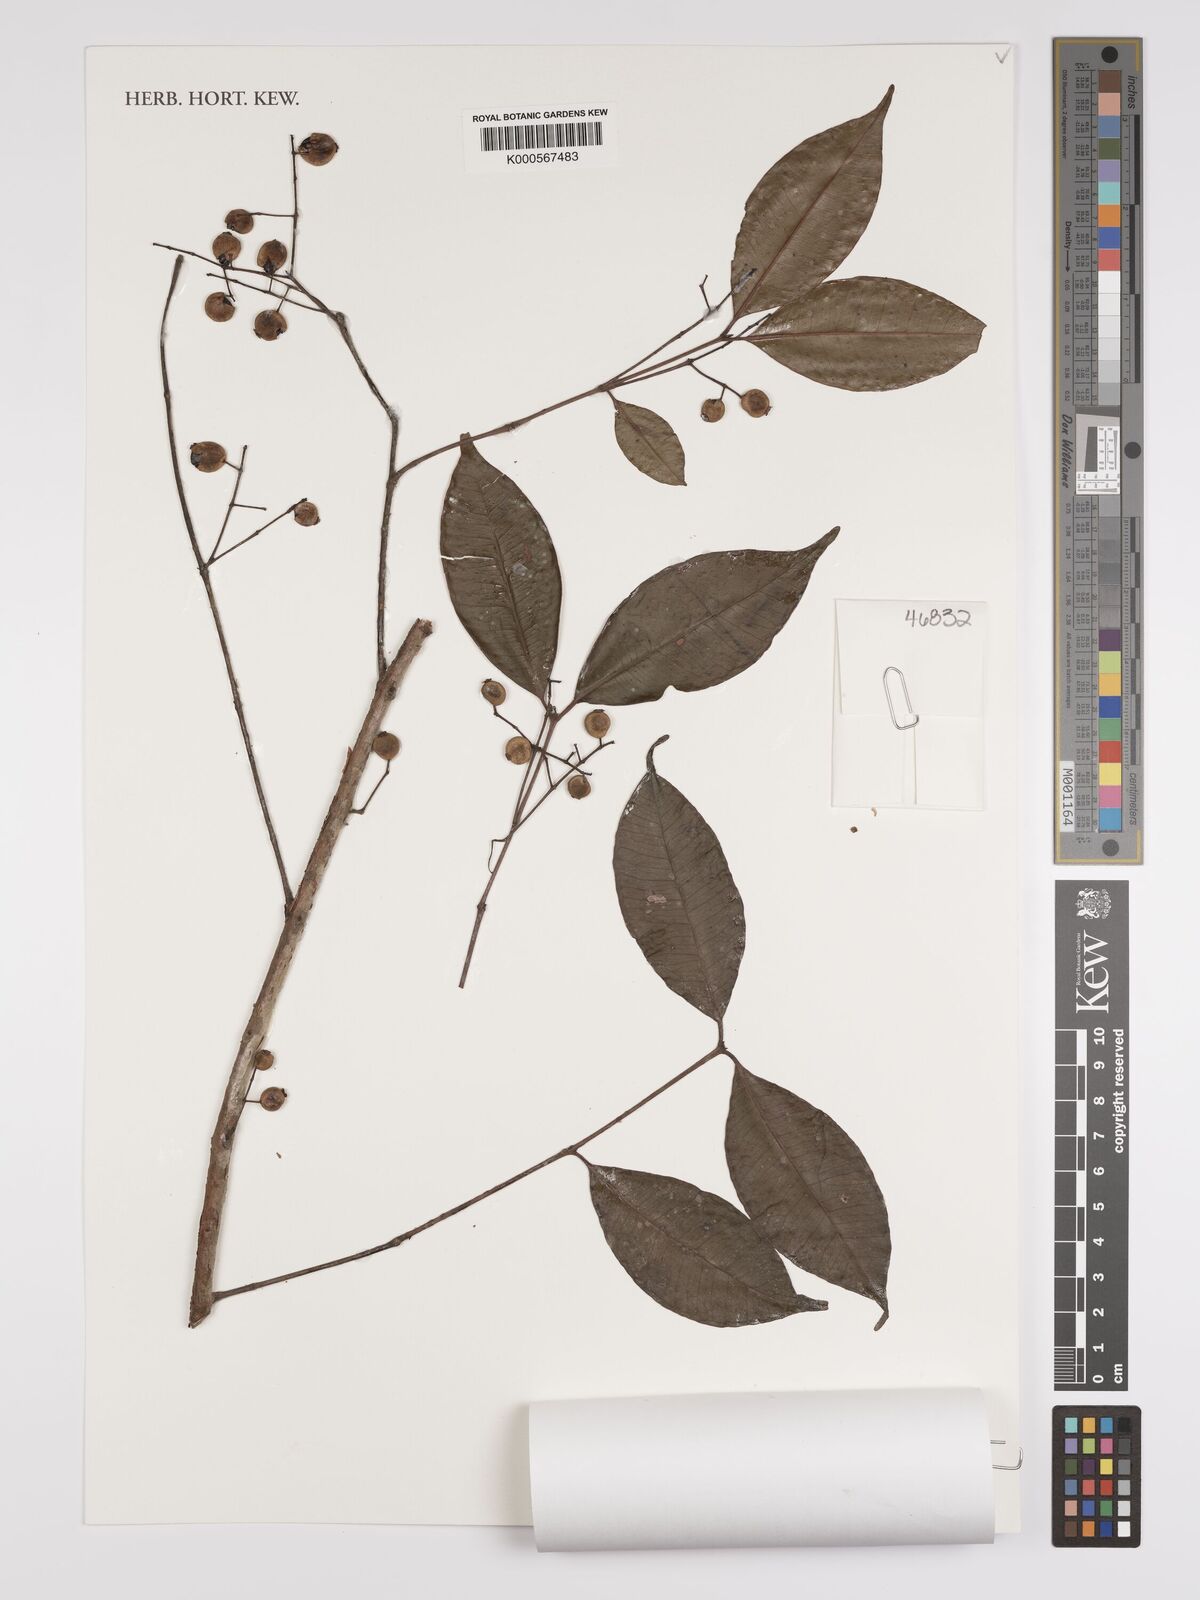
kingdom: Plantae
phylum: Tracheophyta
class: Magnoliopsida
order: Myrtales
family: Myrtaceae
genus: Myrcia
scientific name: Myrcia laxiflora
